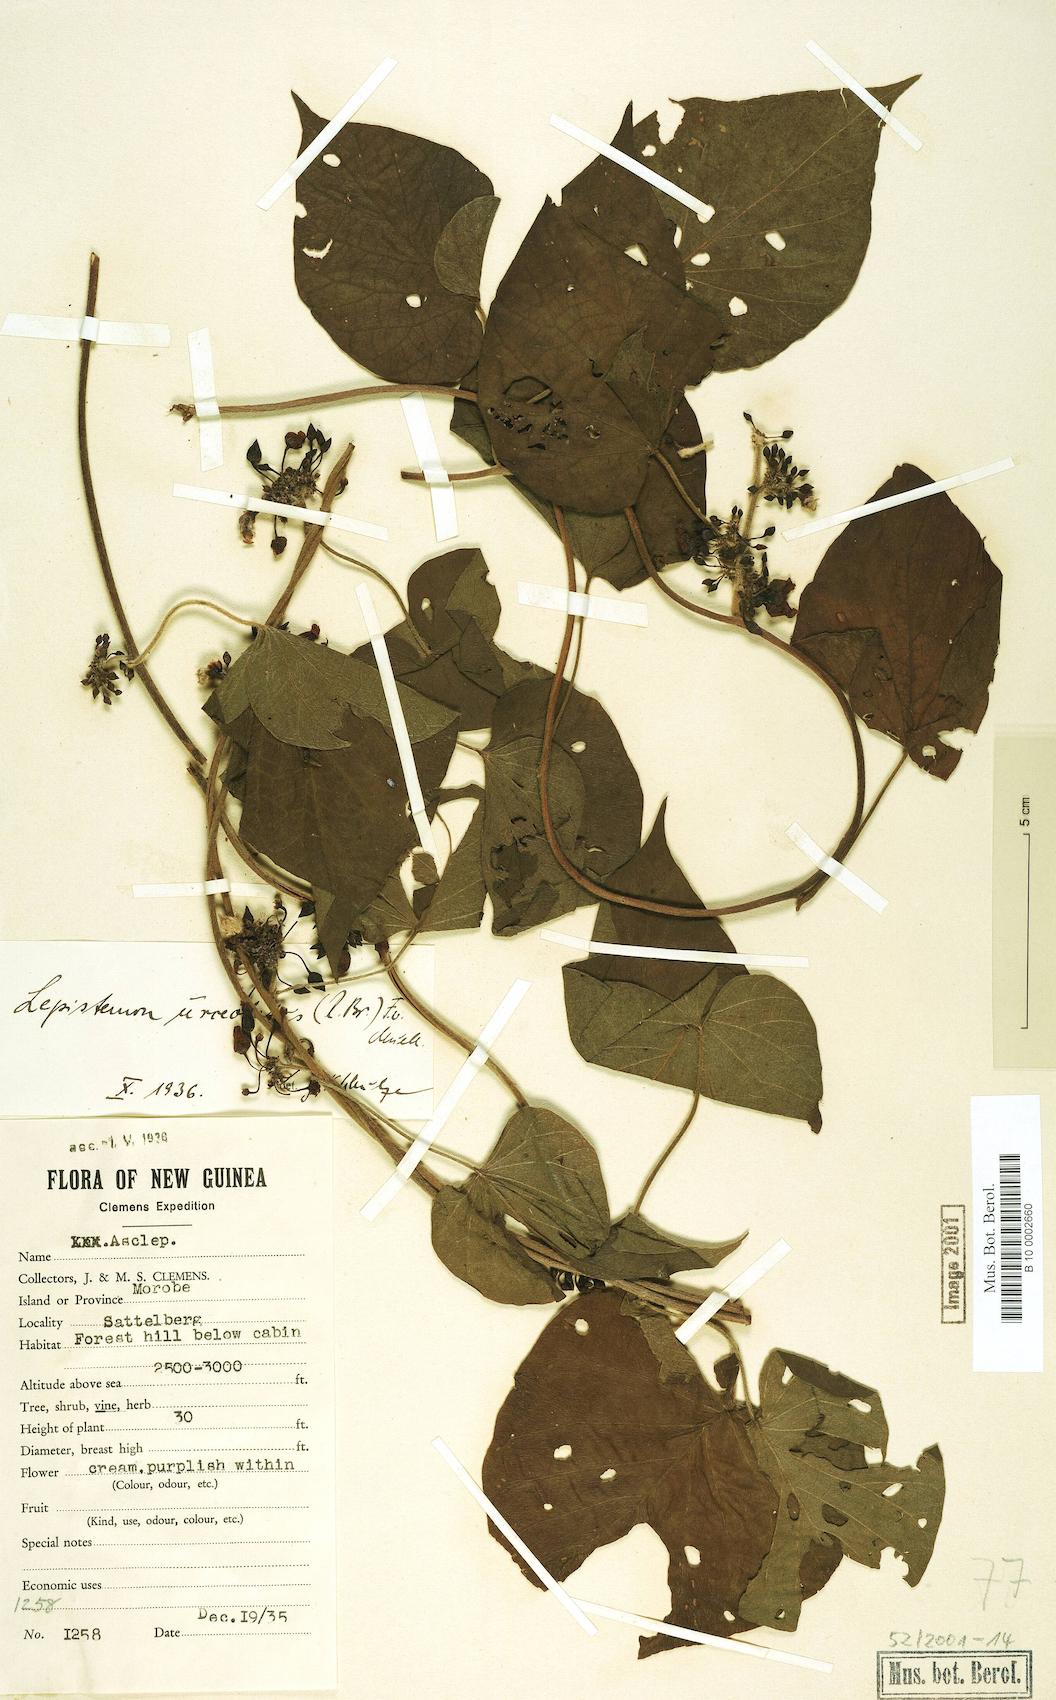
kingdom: Plantae
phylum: Tracheophyta
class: Magnoliopsida
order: Solanales
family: Convolvulaceae
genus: Lepistemon
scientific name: Lepistemon urceolatus
